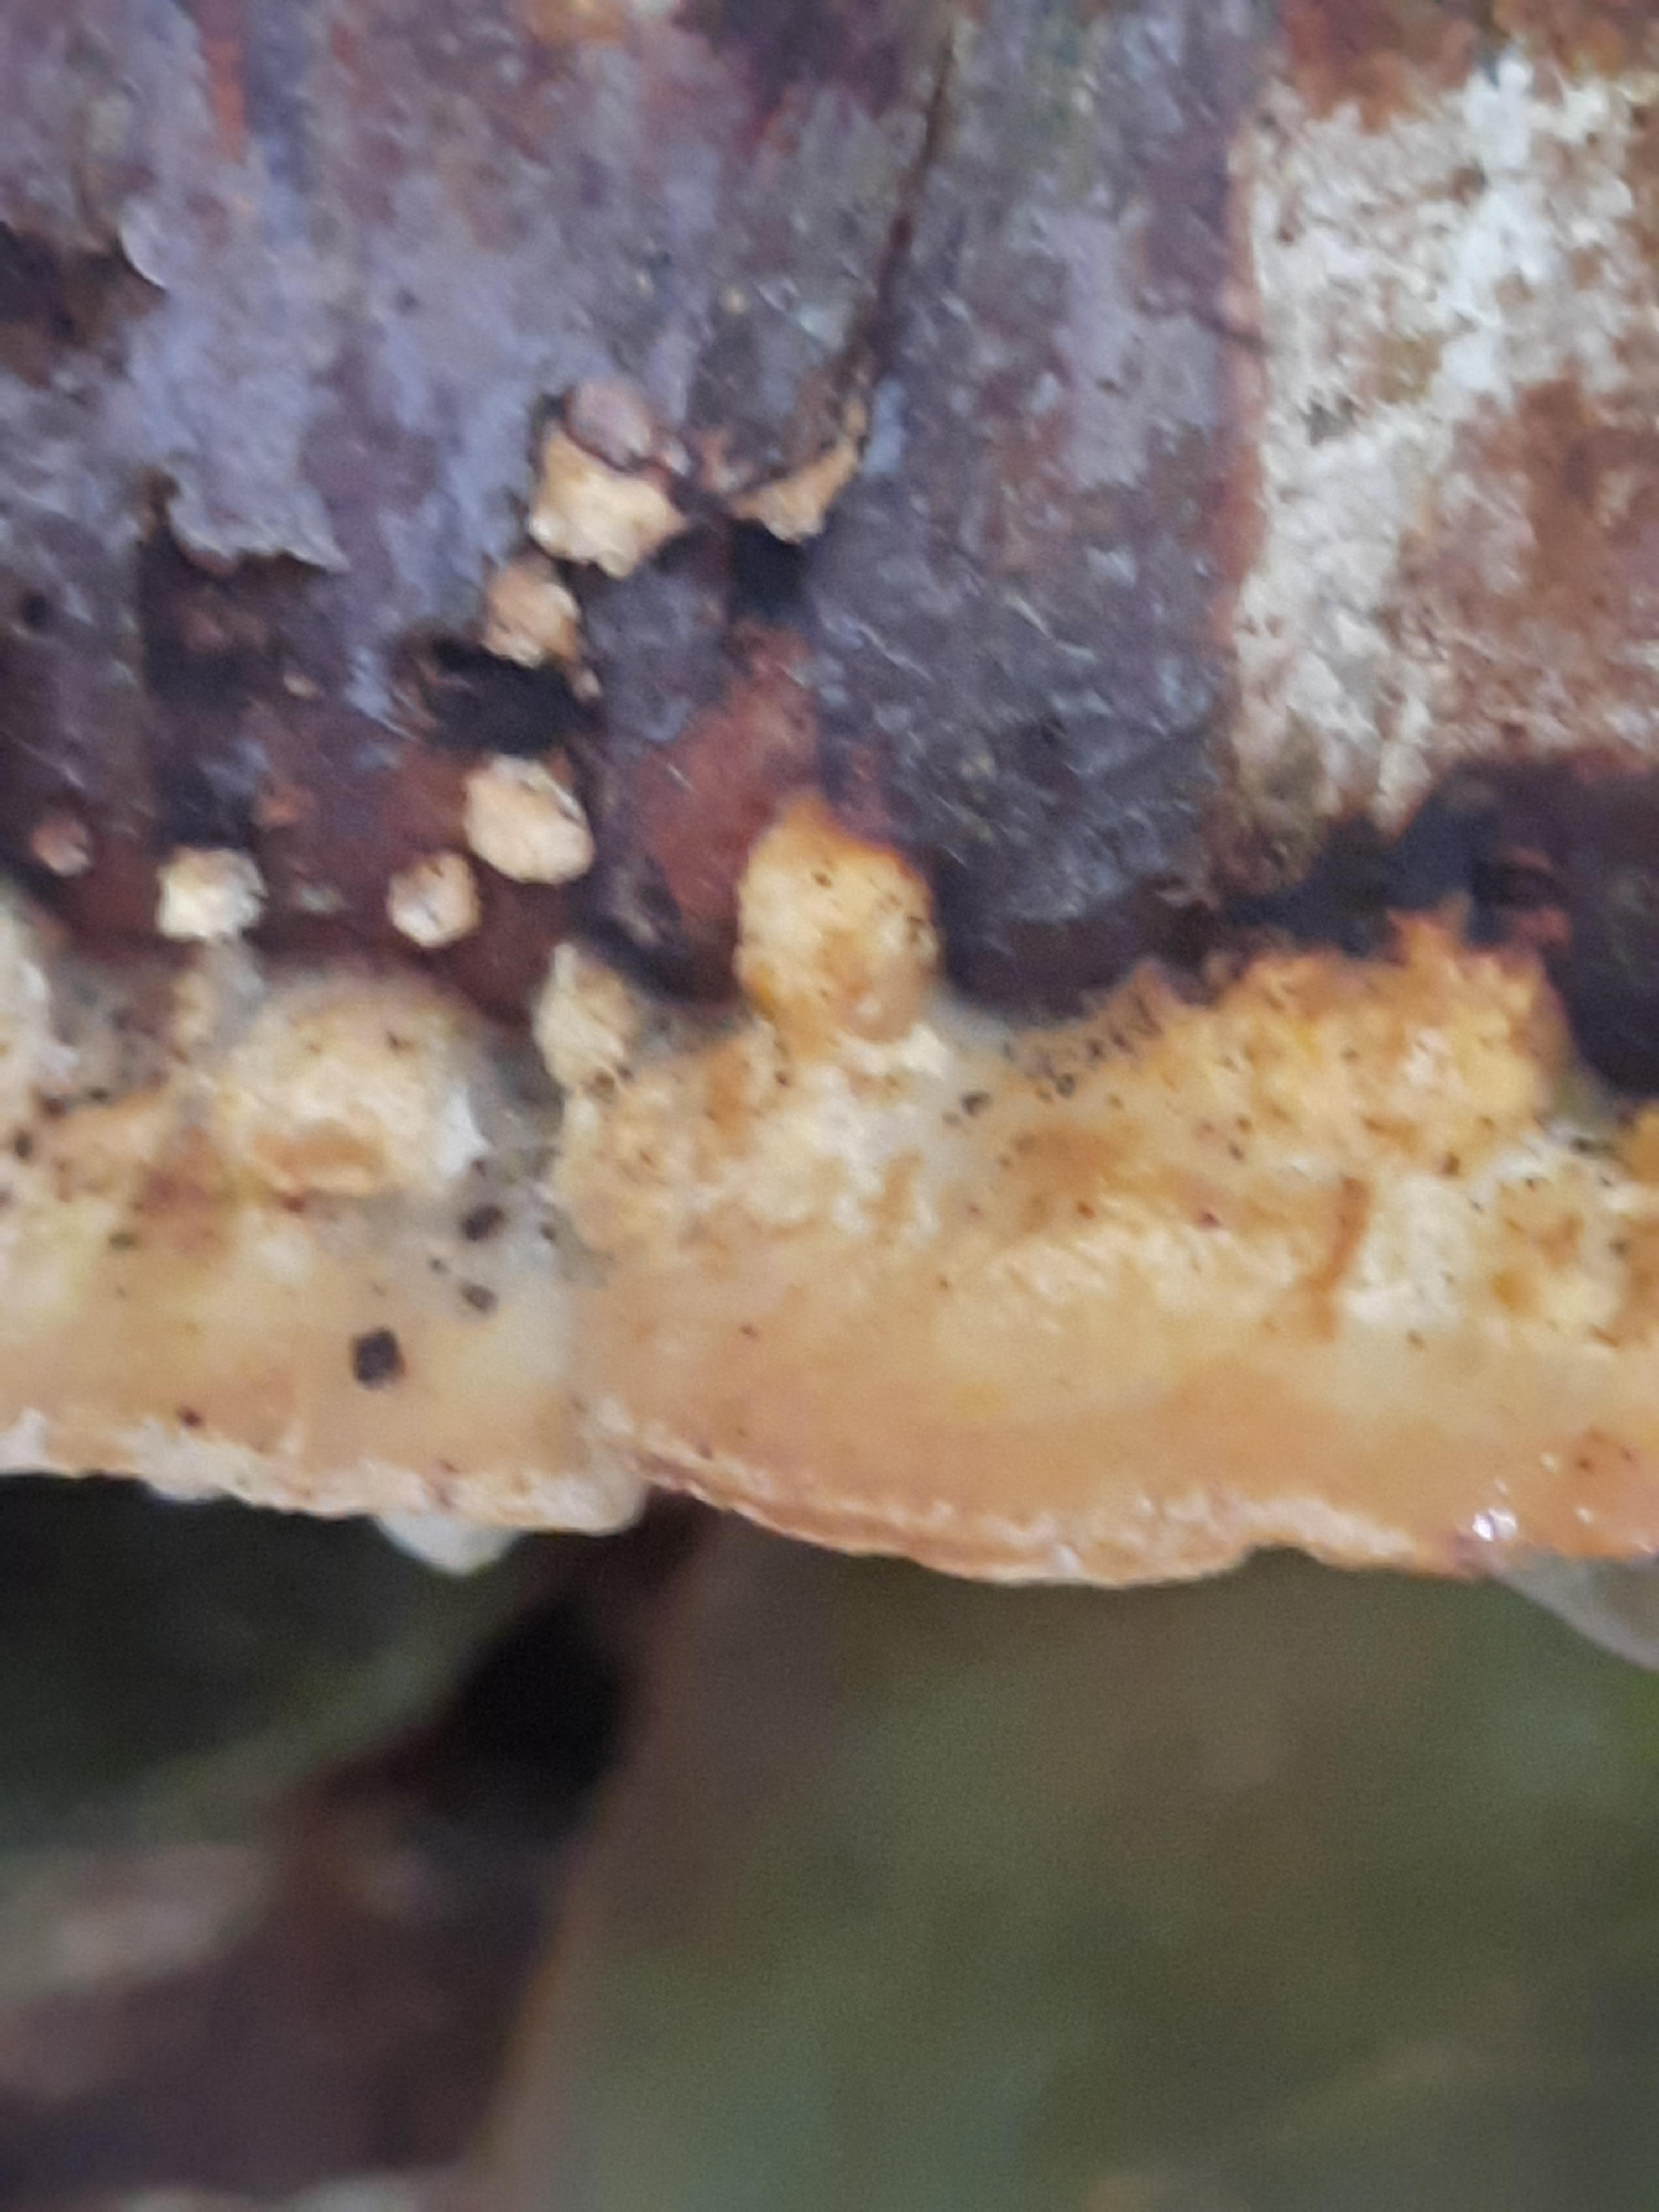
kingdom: Fungi
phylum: Basidiomycota
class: Agaricomycetes
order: Polyporales
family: Incrustoporiaceae
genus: Skeletocutis
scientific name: Skeletocutis nemoralis
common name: stor krystalporesvamp
